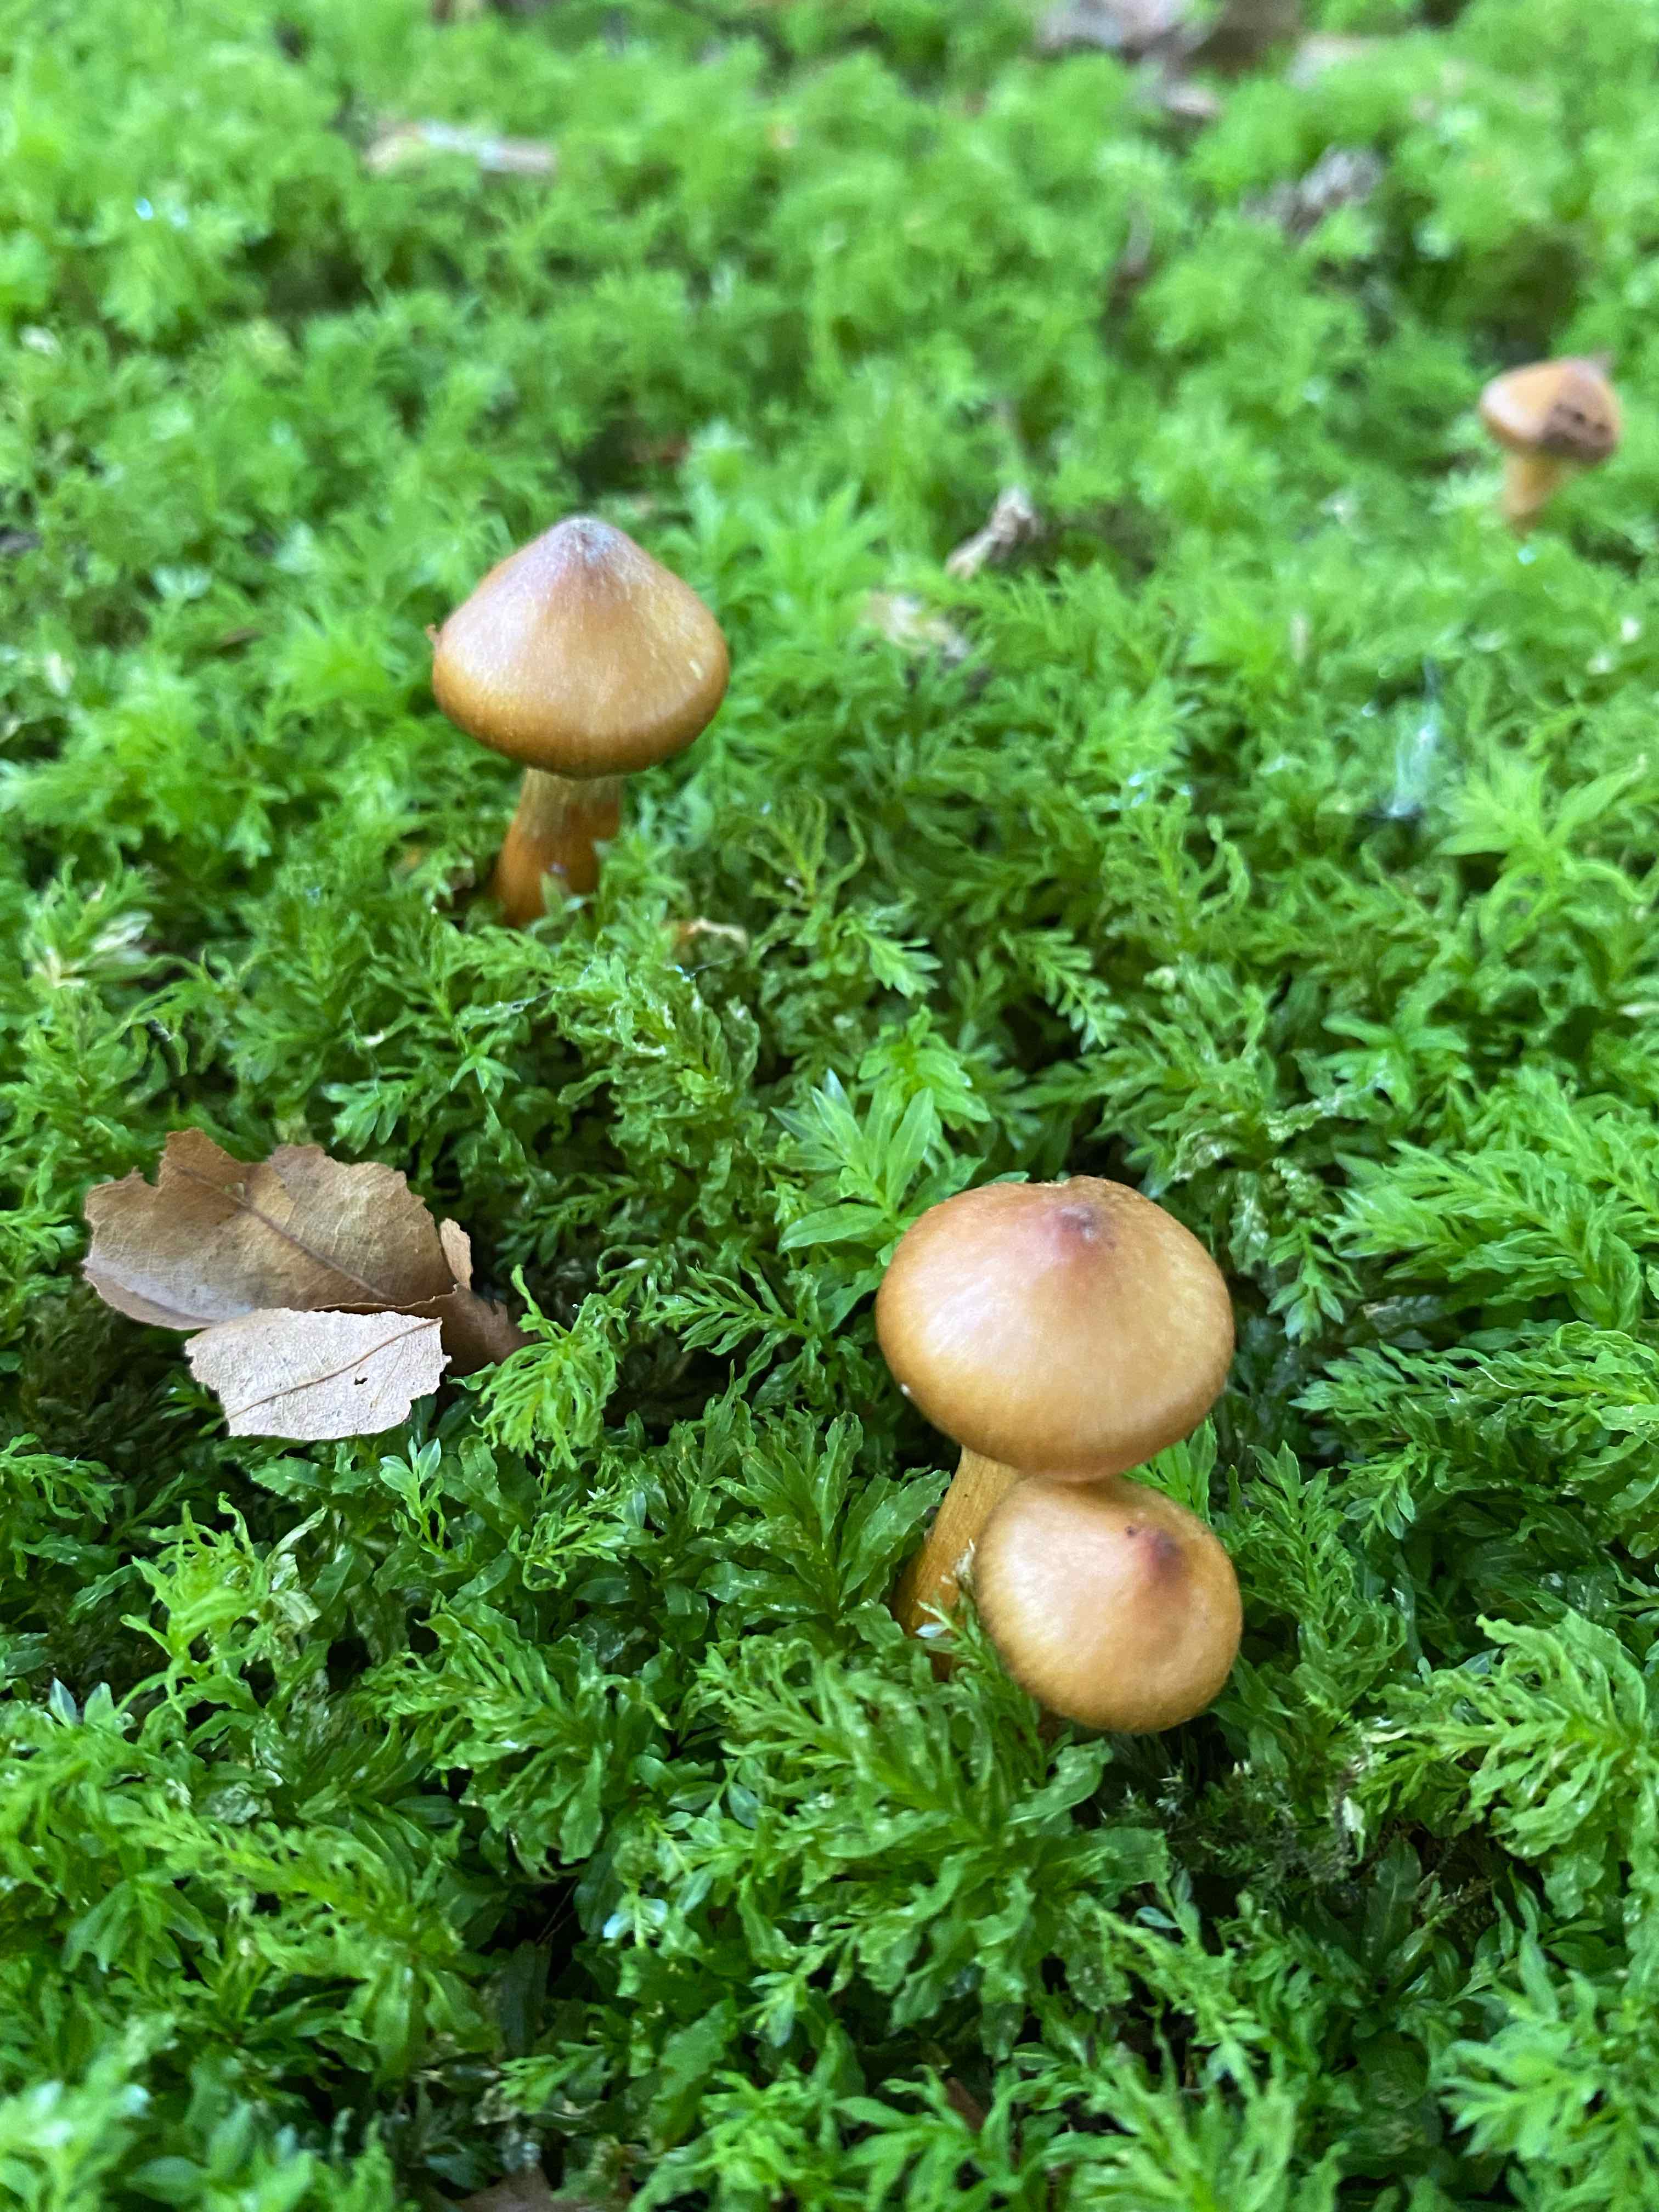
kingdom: Fungi
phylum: Basidiomycota
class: Agaricomycetes
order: Agaricales
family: Cortinariaceae
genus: Cortinarius
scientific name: Cortinarius
